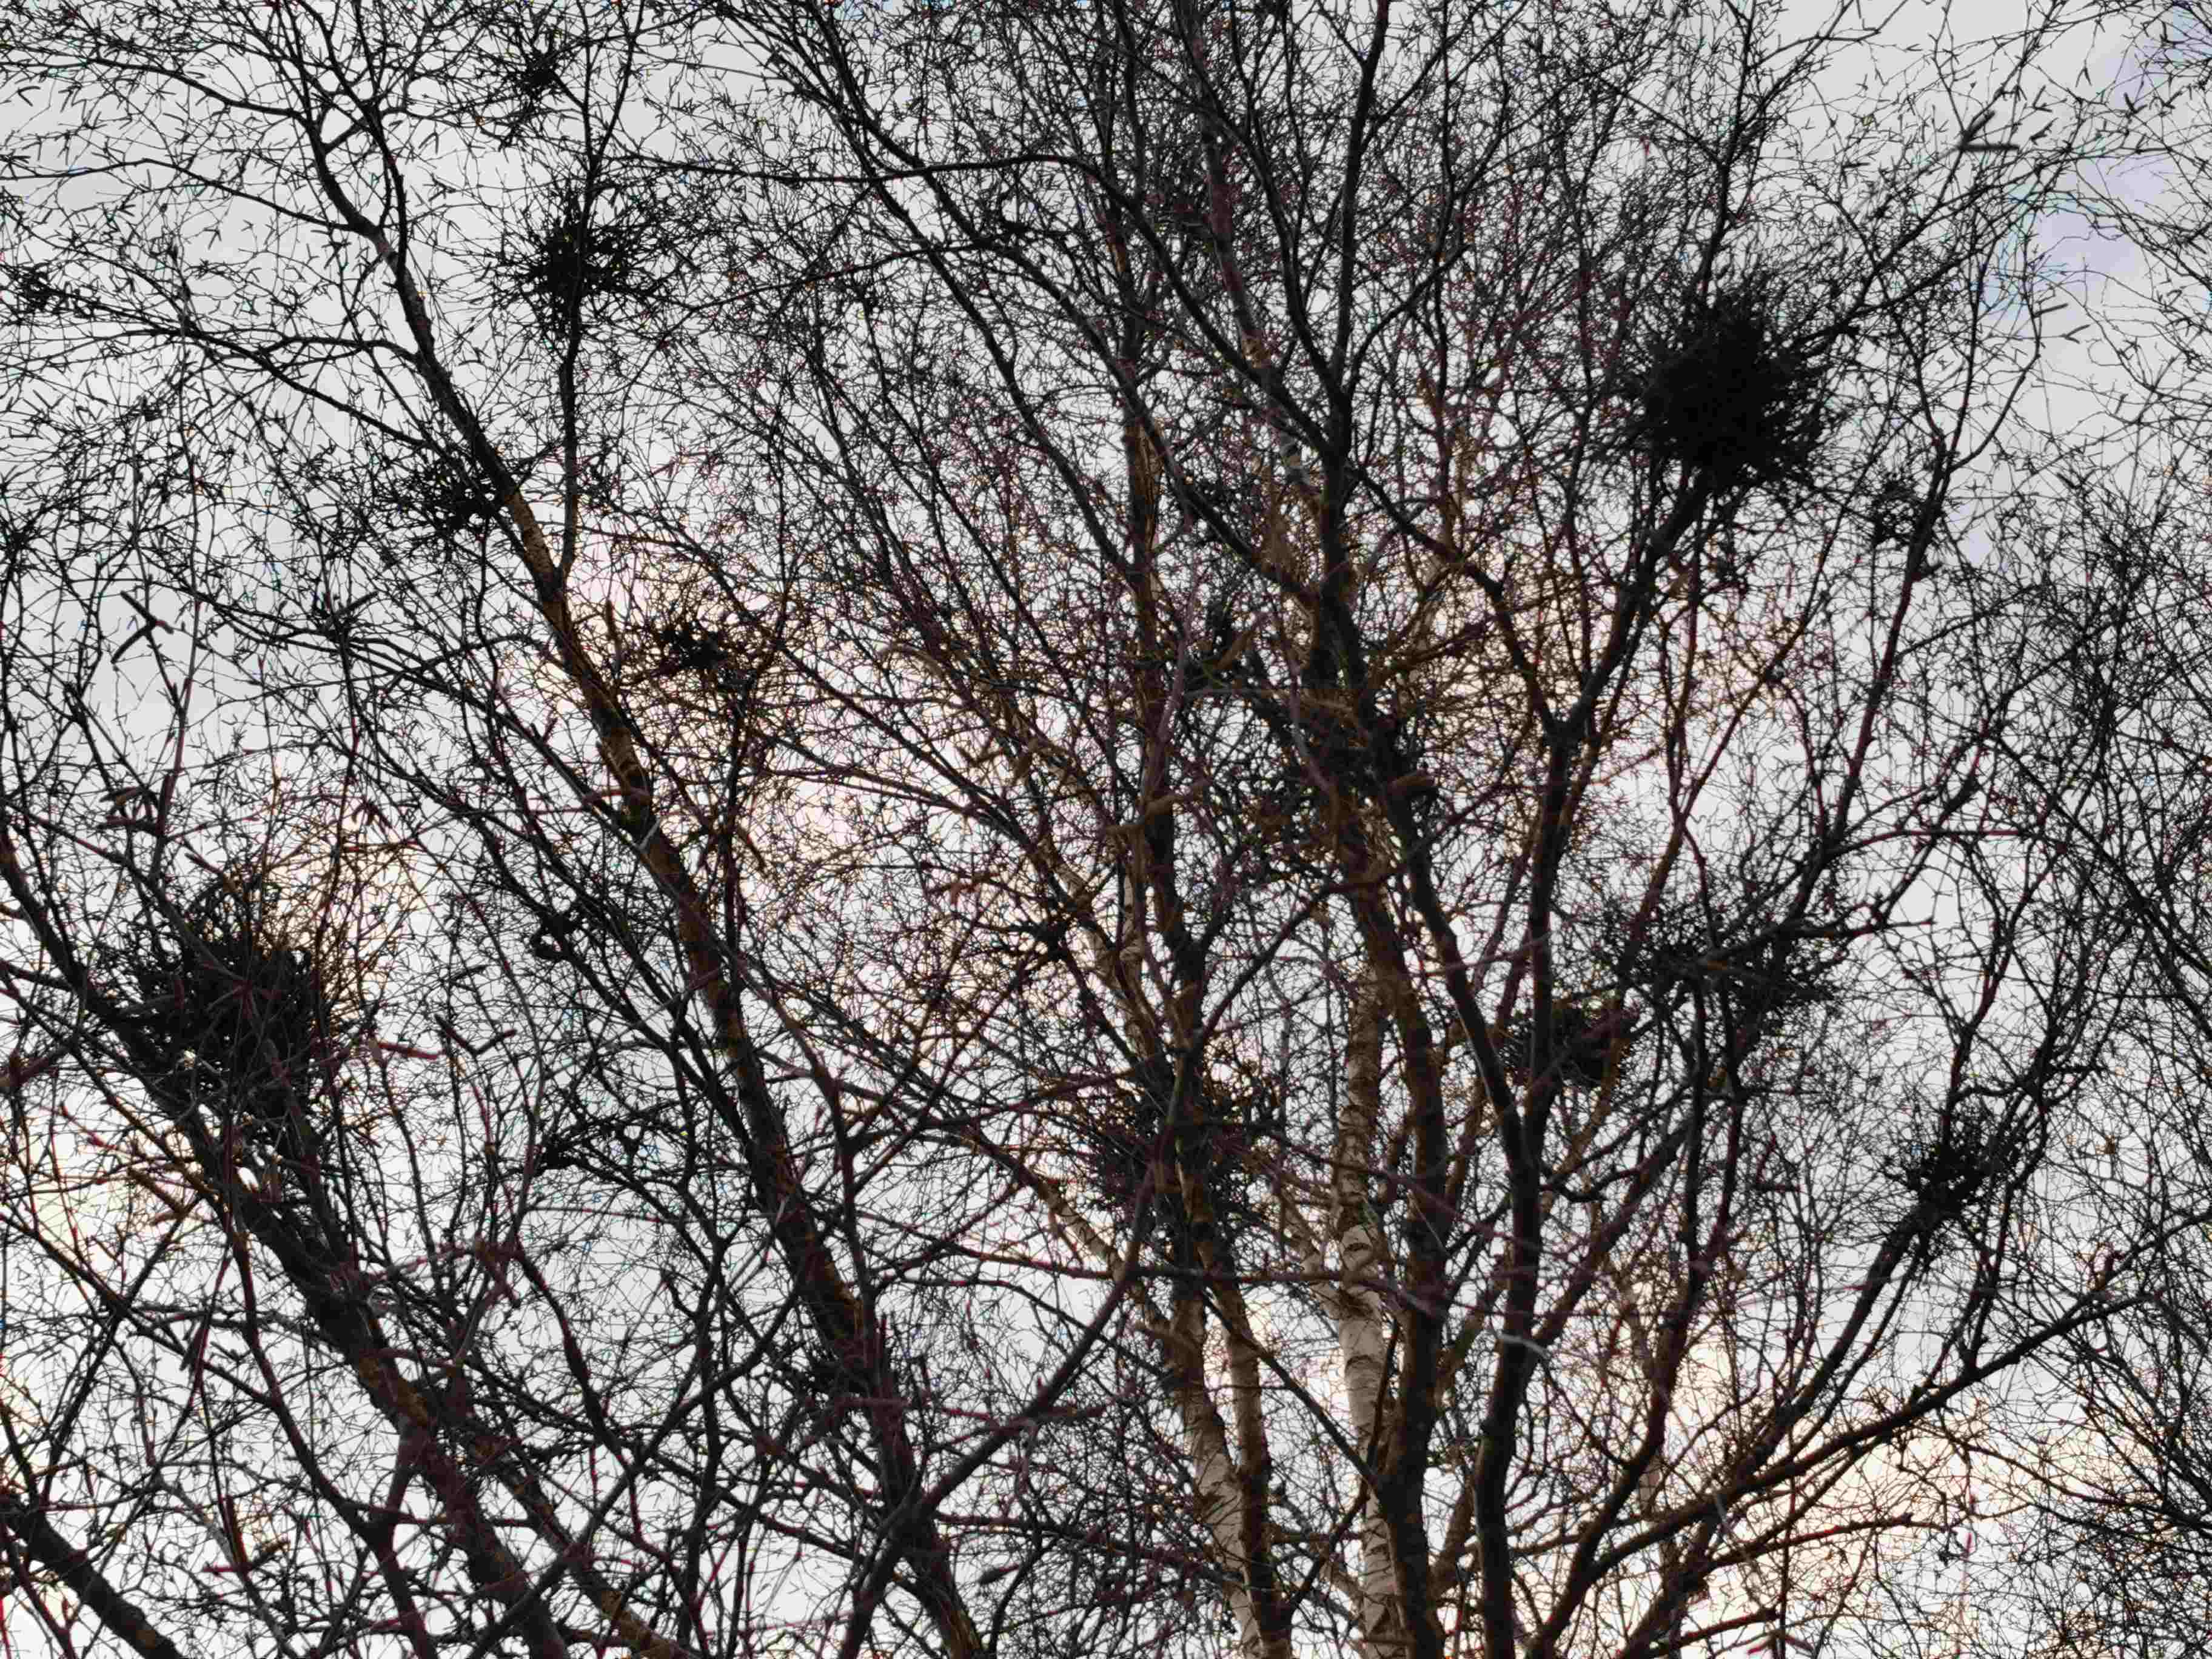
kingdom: Fungi
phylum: Ascomycota
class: Taphrinomycetes
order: Taphrinales
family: Taphrinaceae
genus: Taphrina
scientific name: Taphrina betulina
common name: hekse-sækdug
